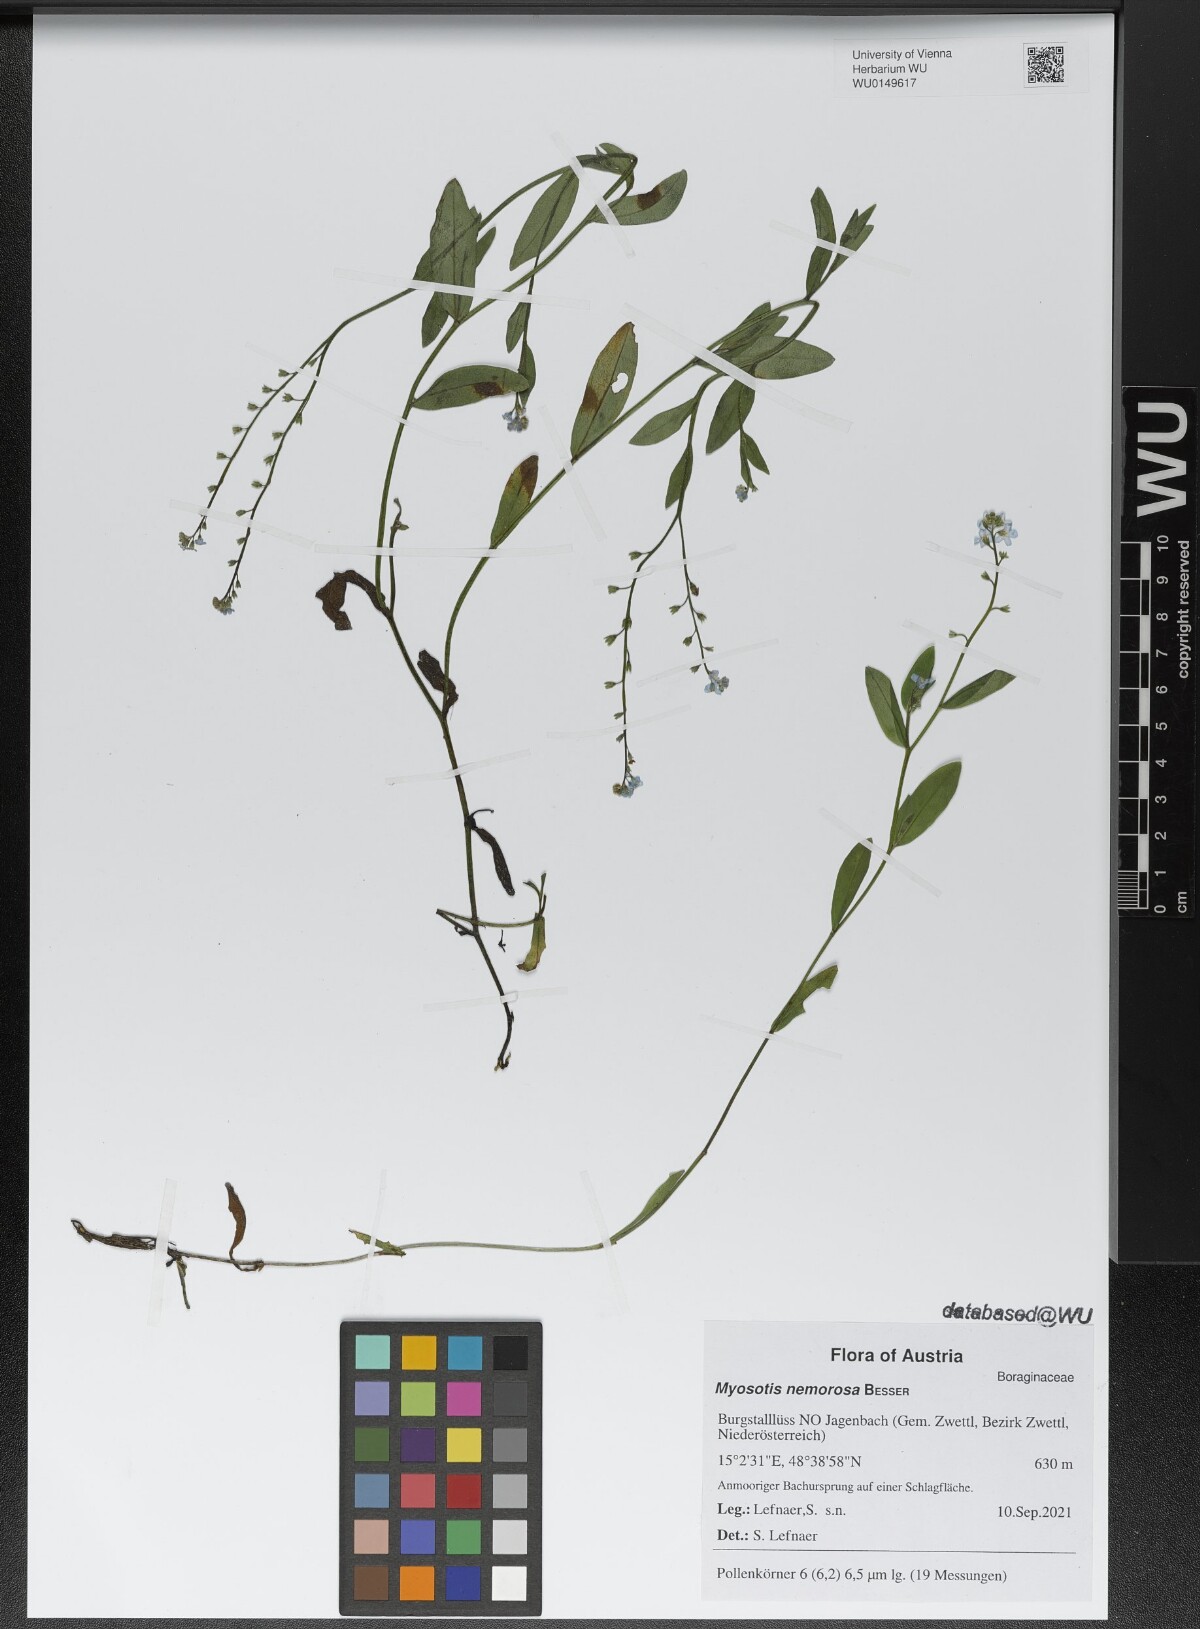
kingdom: Plantae
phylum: Tracheophyta
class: Magnoliopsida
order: Boraginales
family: Boraginaceae
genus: Myosotis
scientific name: Myosotis nemorosa
